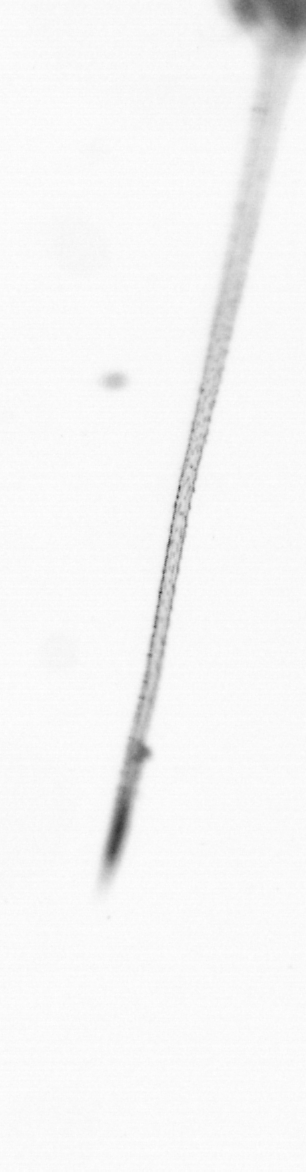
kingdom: Chromista
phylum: Ochrophyta
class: Bacillariophyceae
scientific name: Bacillariophyceae
